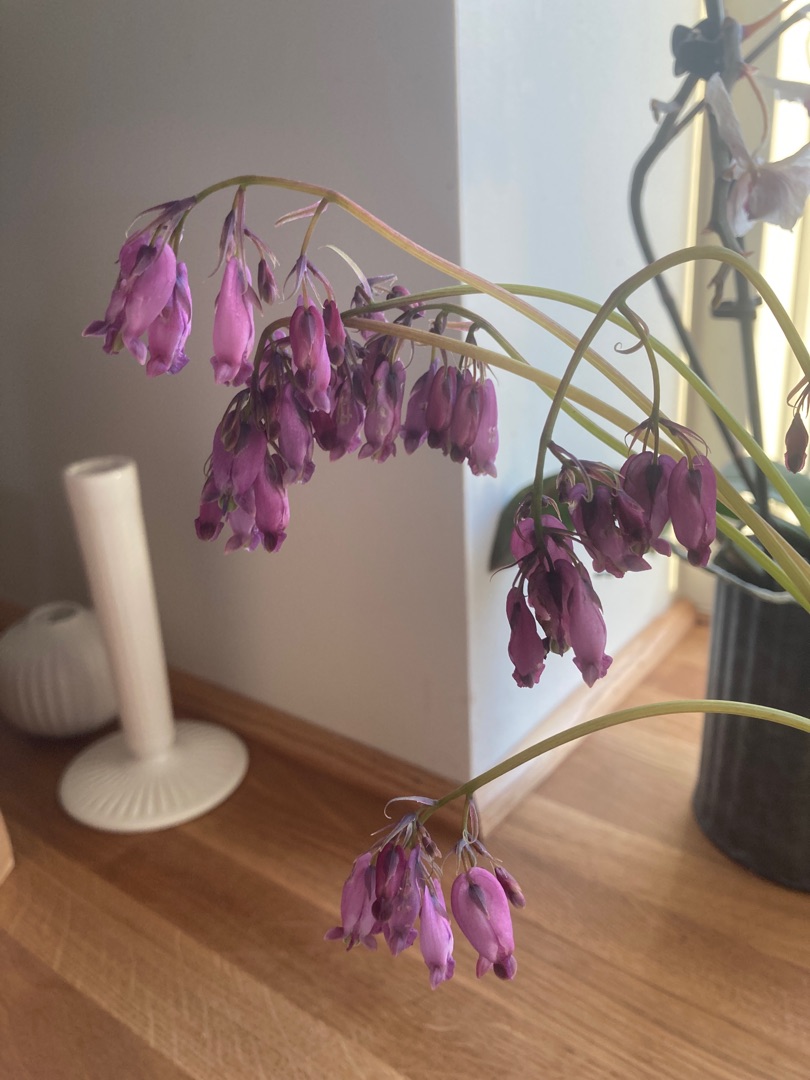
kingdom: Plantae
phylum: Tracheophyta
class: Magnoliopsida
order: Ranunculales
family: Papaveraceae
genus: Dicentra
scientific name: Dicentra formosa
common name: Småhjerte
